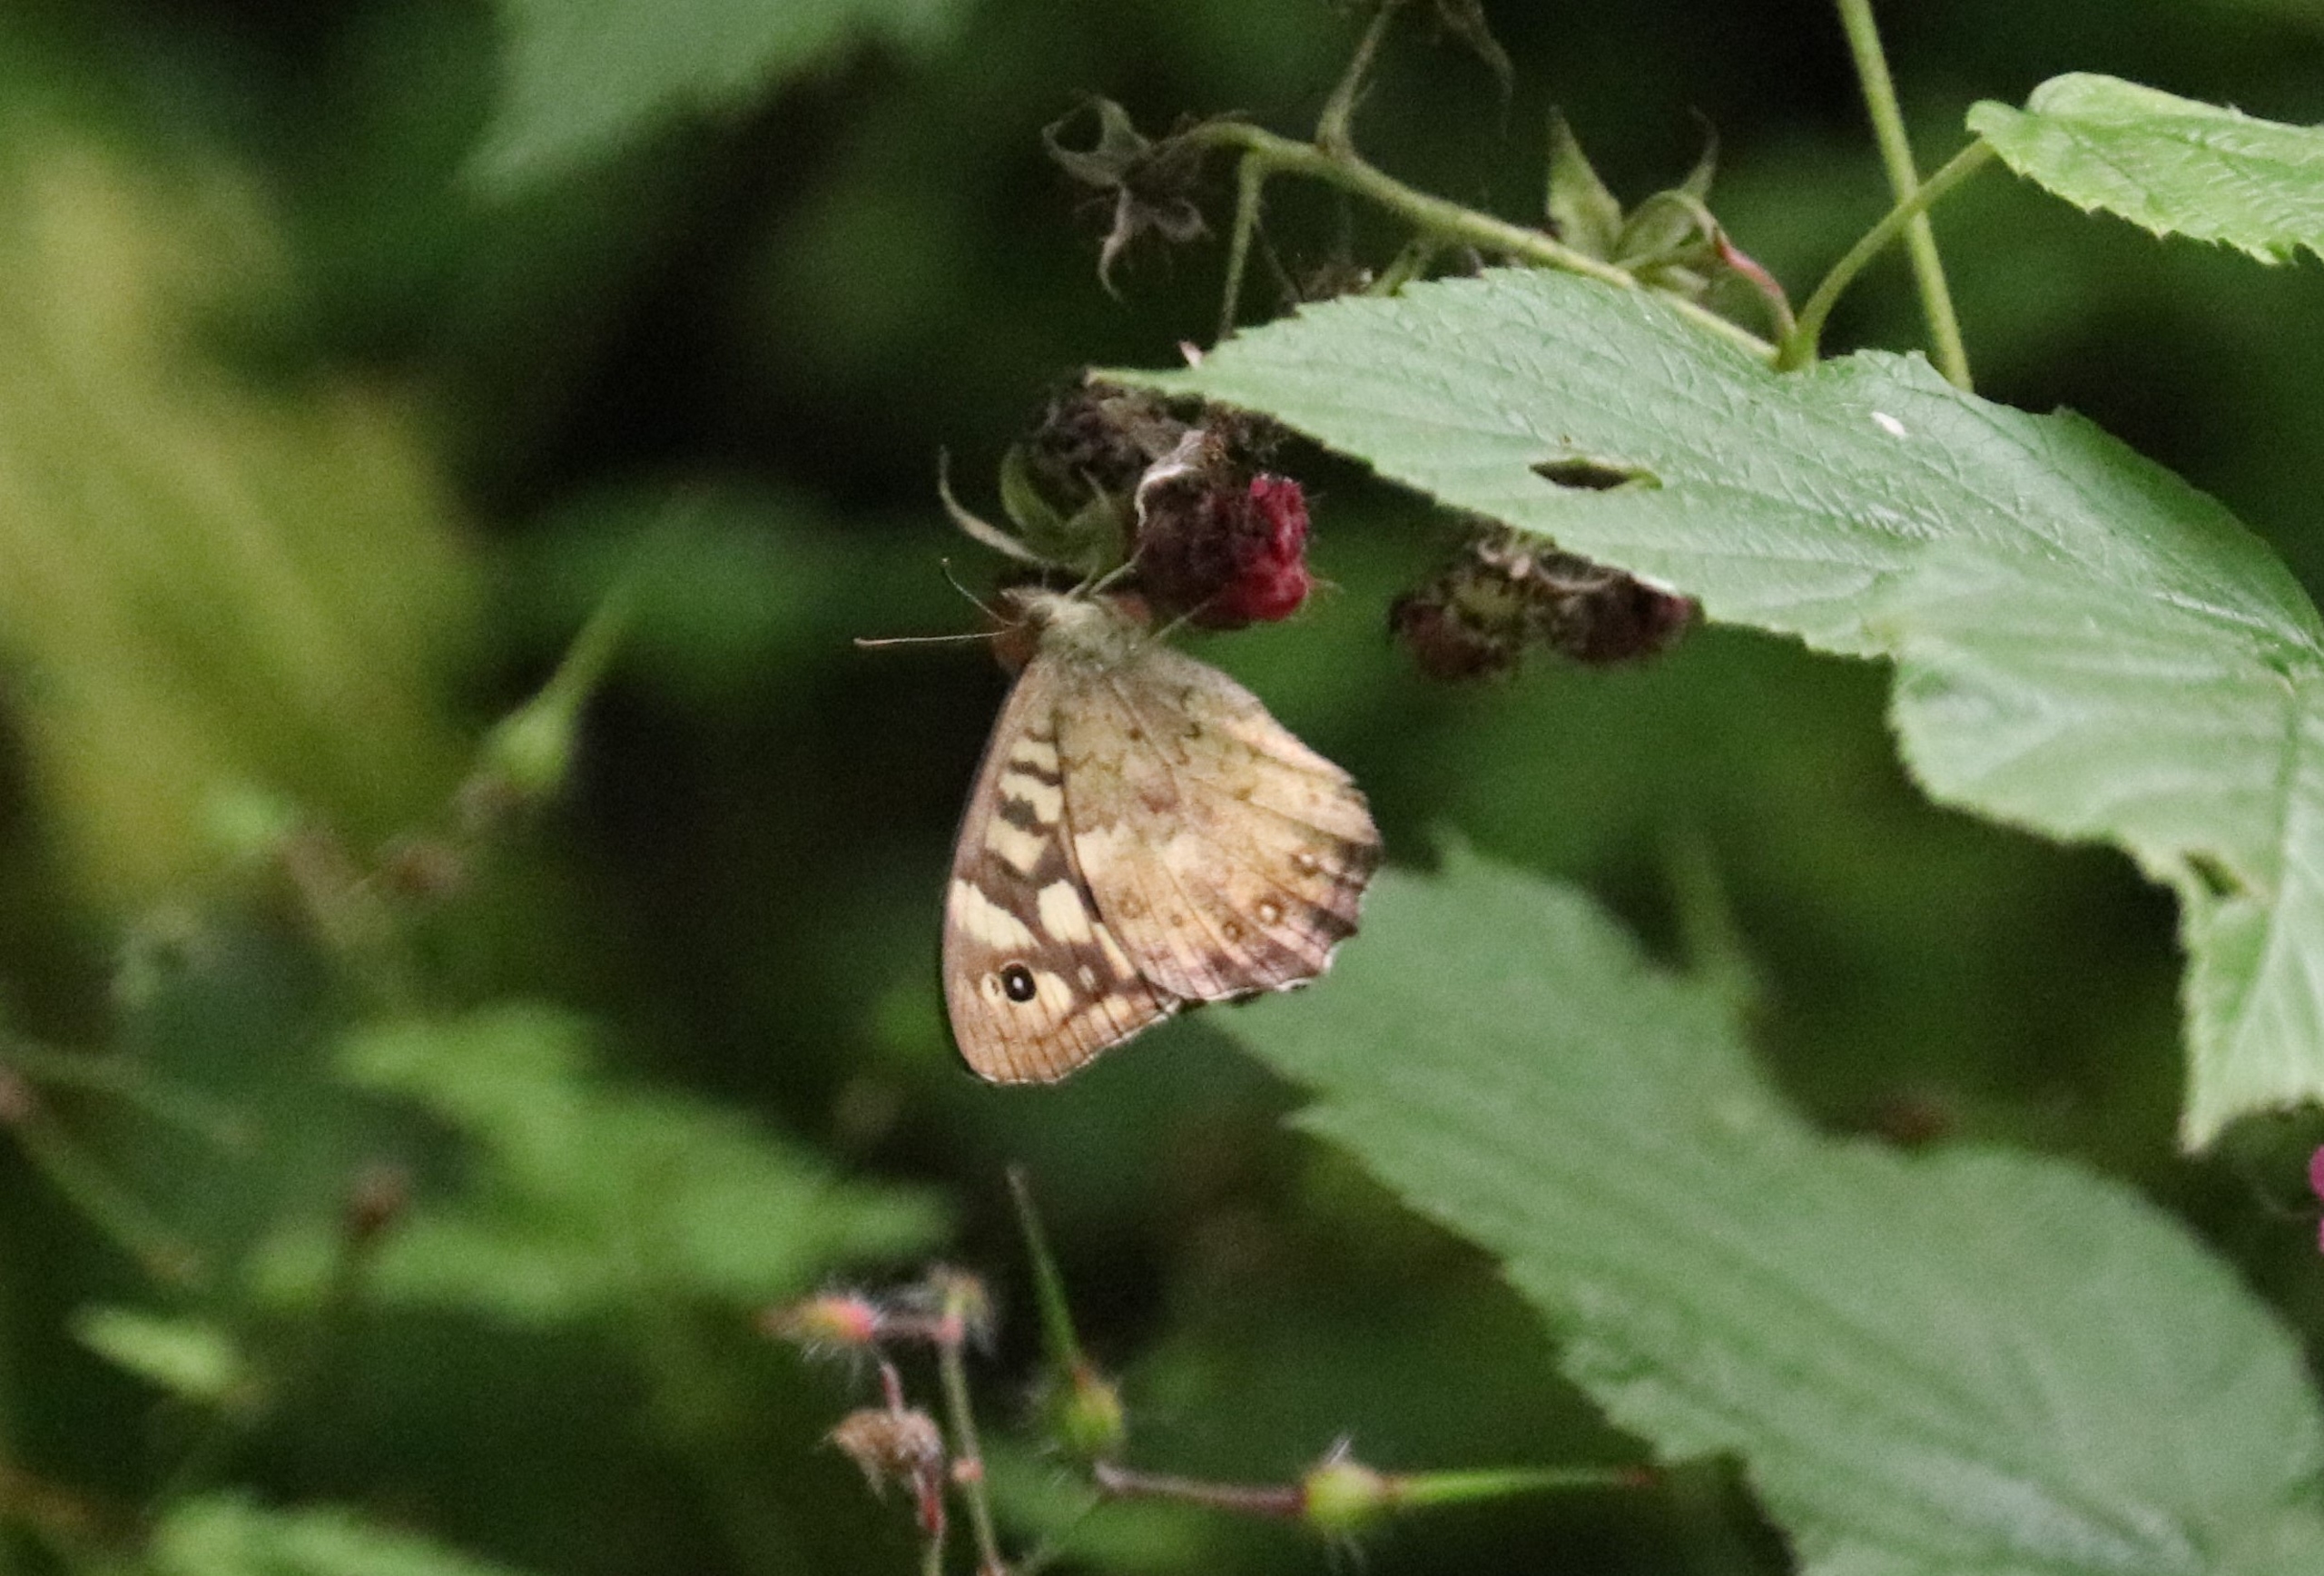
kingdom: Animalia
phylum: Arthropoda
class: Insecta
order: Lepidoptera
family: Nymphalidae
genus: Pararge
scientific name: Pararge aegeria
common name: Skovrandøje
